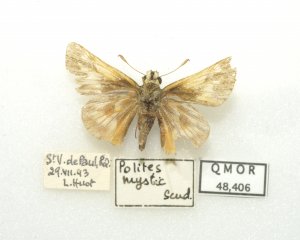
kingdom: Animalia
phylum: Arthropoda
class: Insecta
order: Lepidoptera
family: Hesperiidae
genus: Polites
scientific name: Polites
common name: Long Dash Skipper
